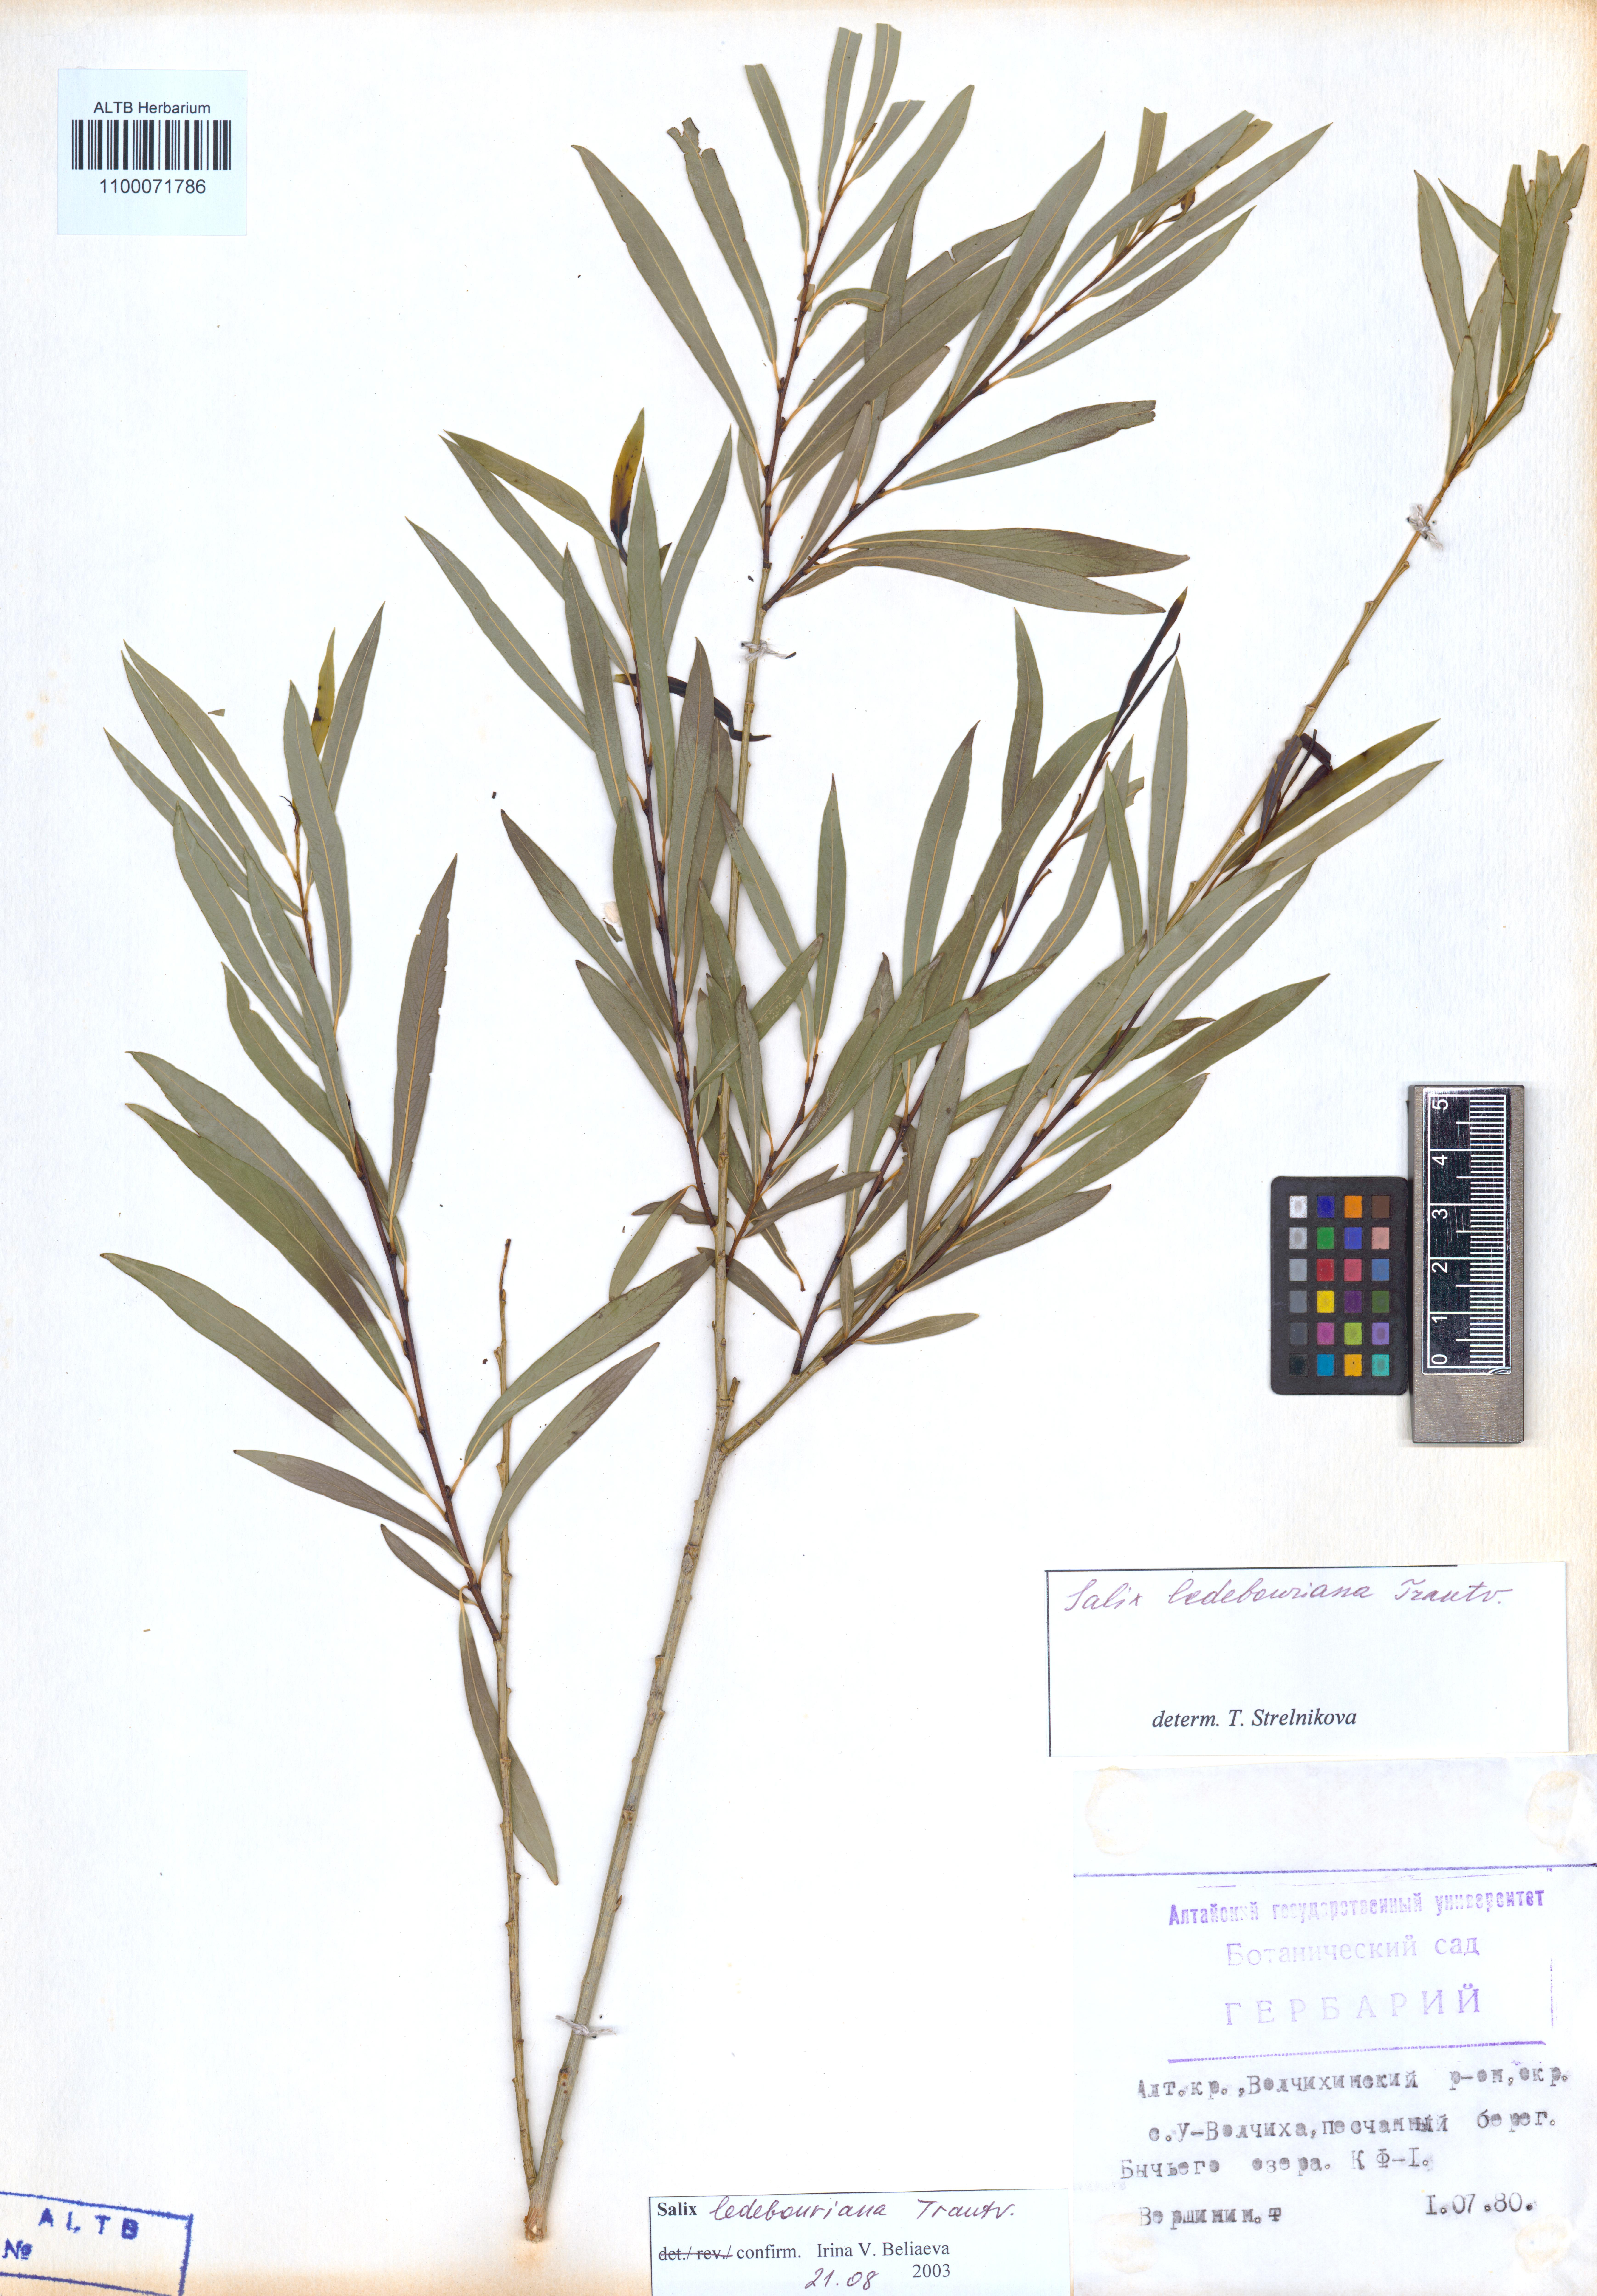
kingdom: Plantae
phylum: Tracheophyta
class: Magnoliopsida
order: Malpighiales
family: Salicaceae
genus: Salix
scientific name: Salix ledebouriana
